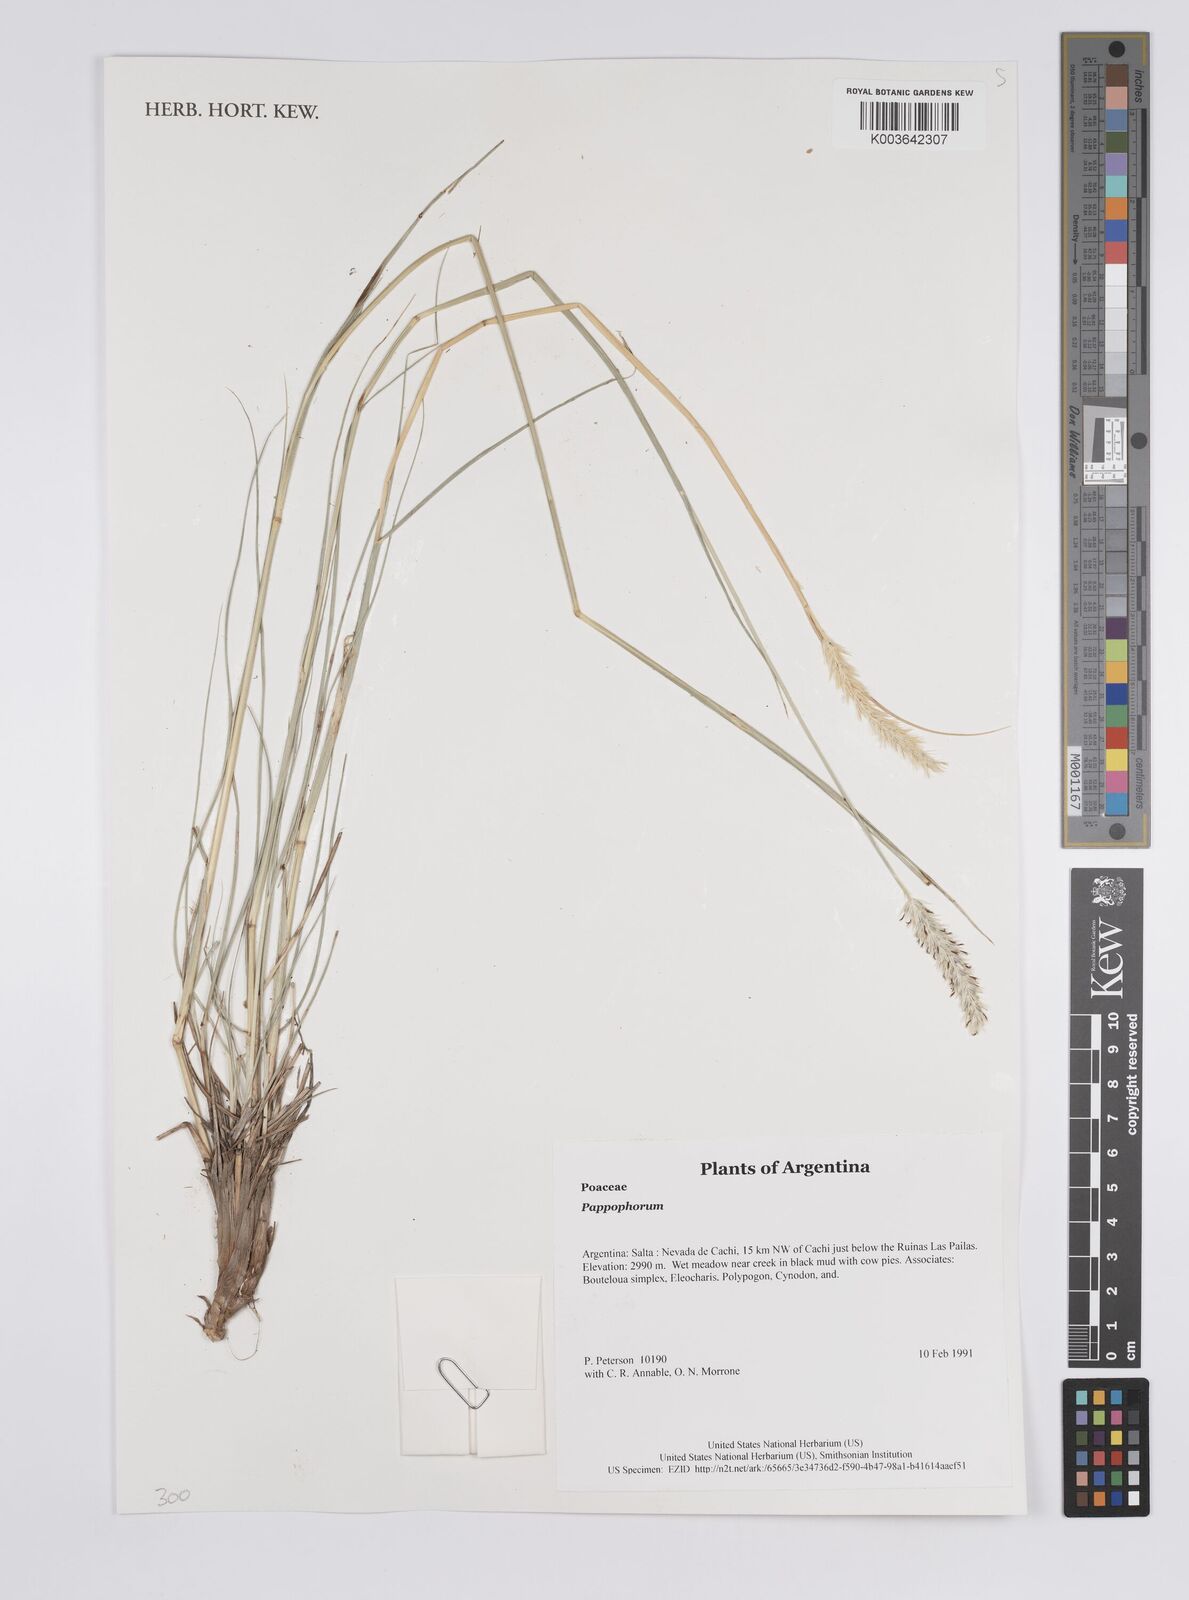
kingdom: Plantae
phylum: Tracheophyta
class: Liliopsida
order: Poales
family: Poaceae
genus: Pappophorum
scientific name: Pappophorum
